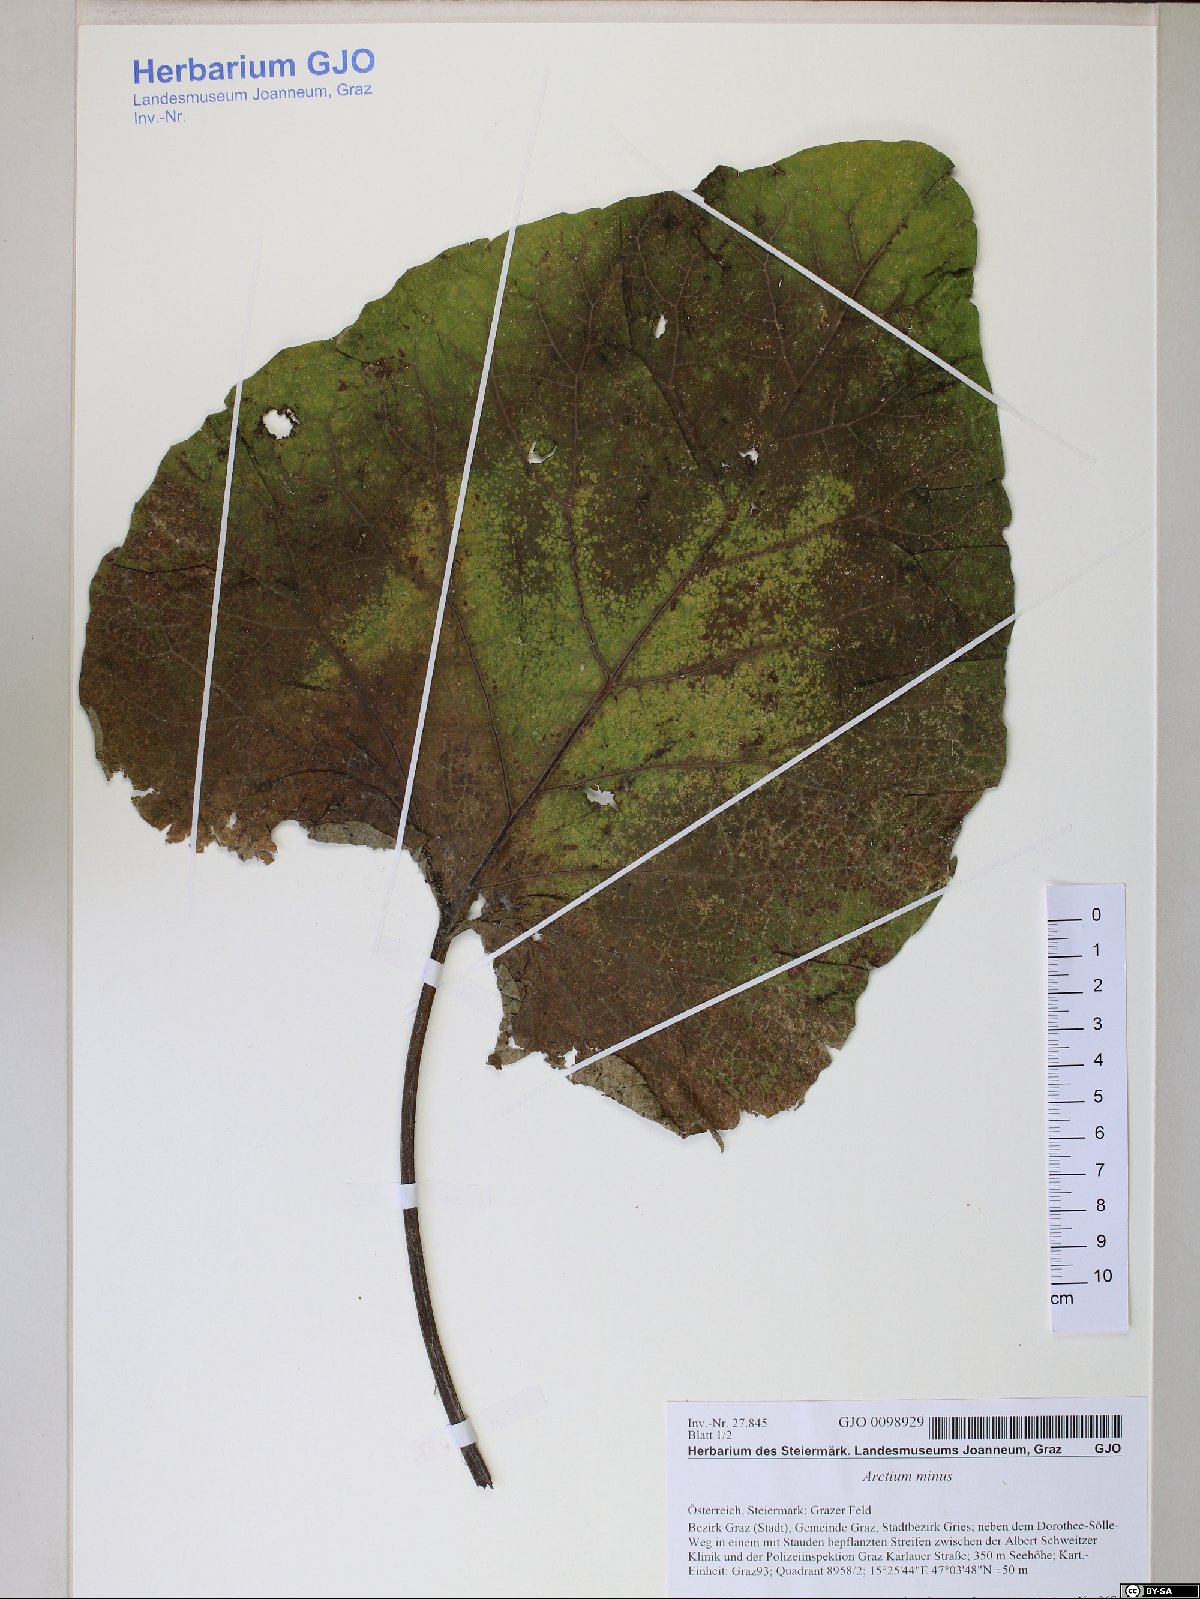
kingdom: Plantae
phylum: Tracheophyta
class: Magnoliopsida
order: Asterales
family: Asteraceae
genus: Arctium
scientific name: Arctium minus
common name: Lesser burdock
